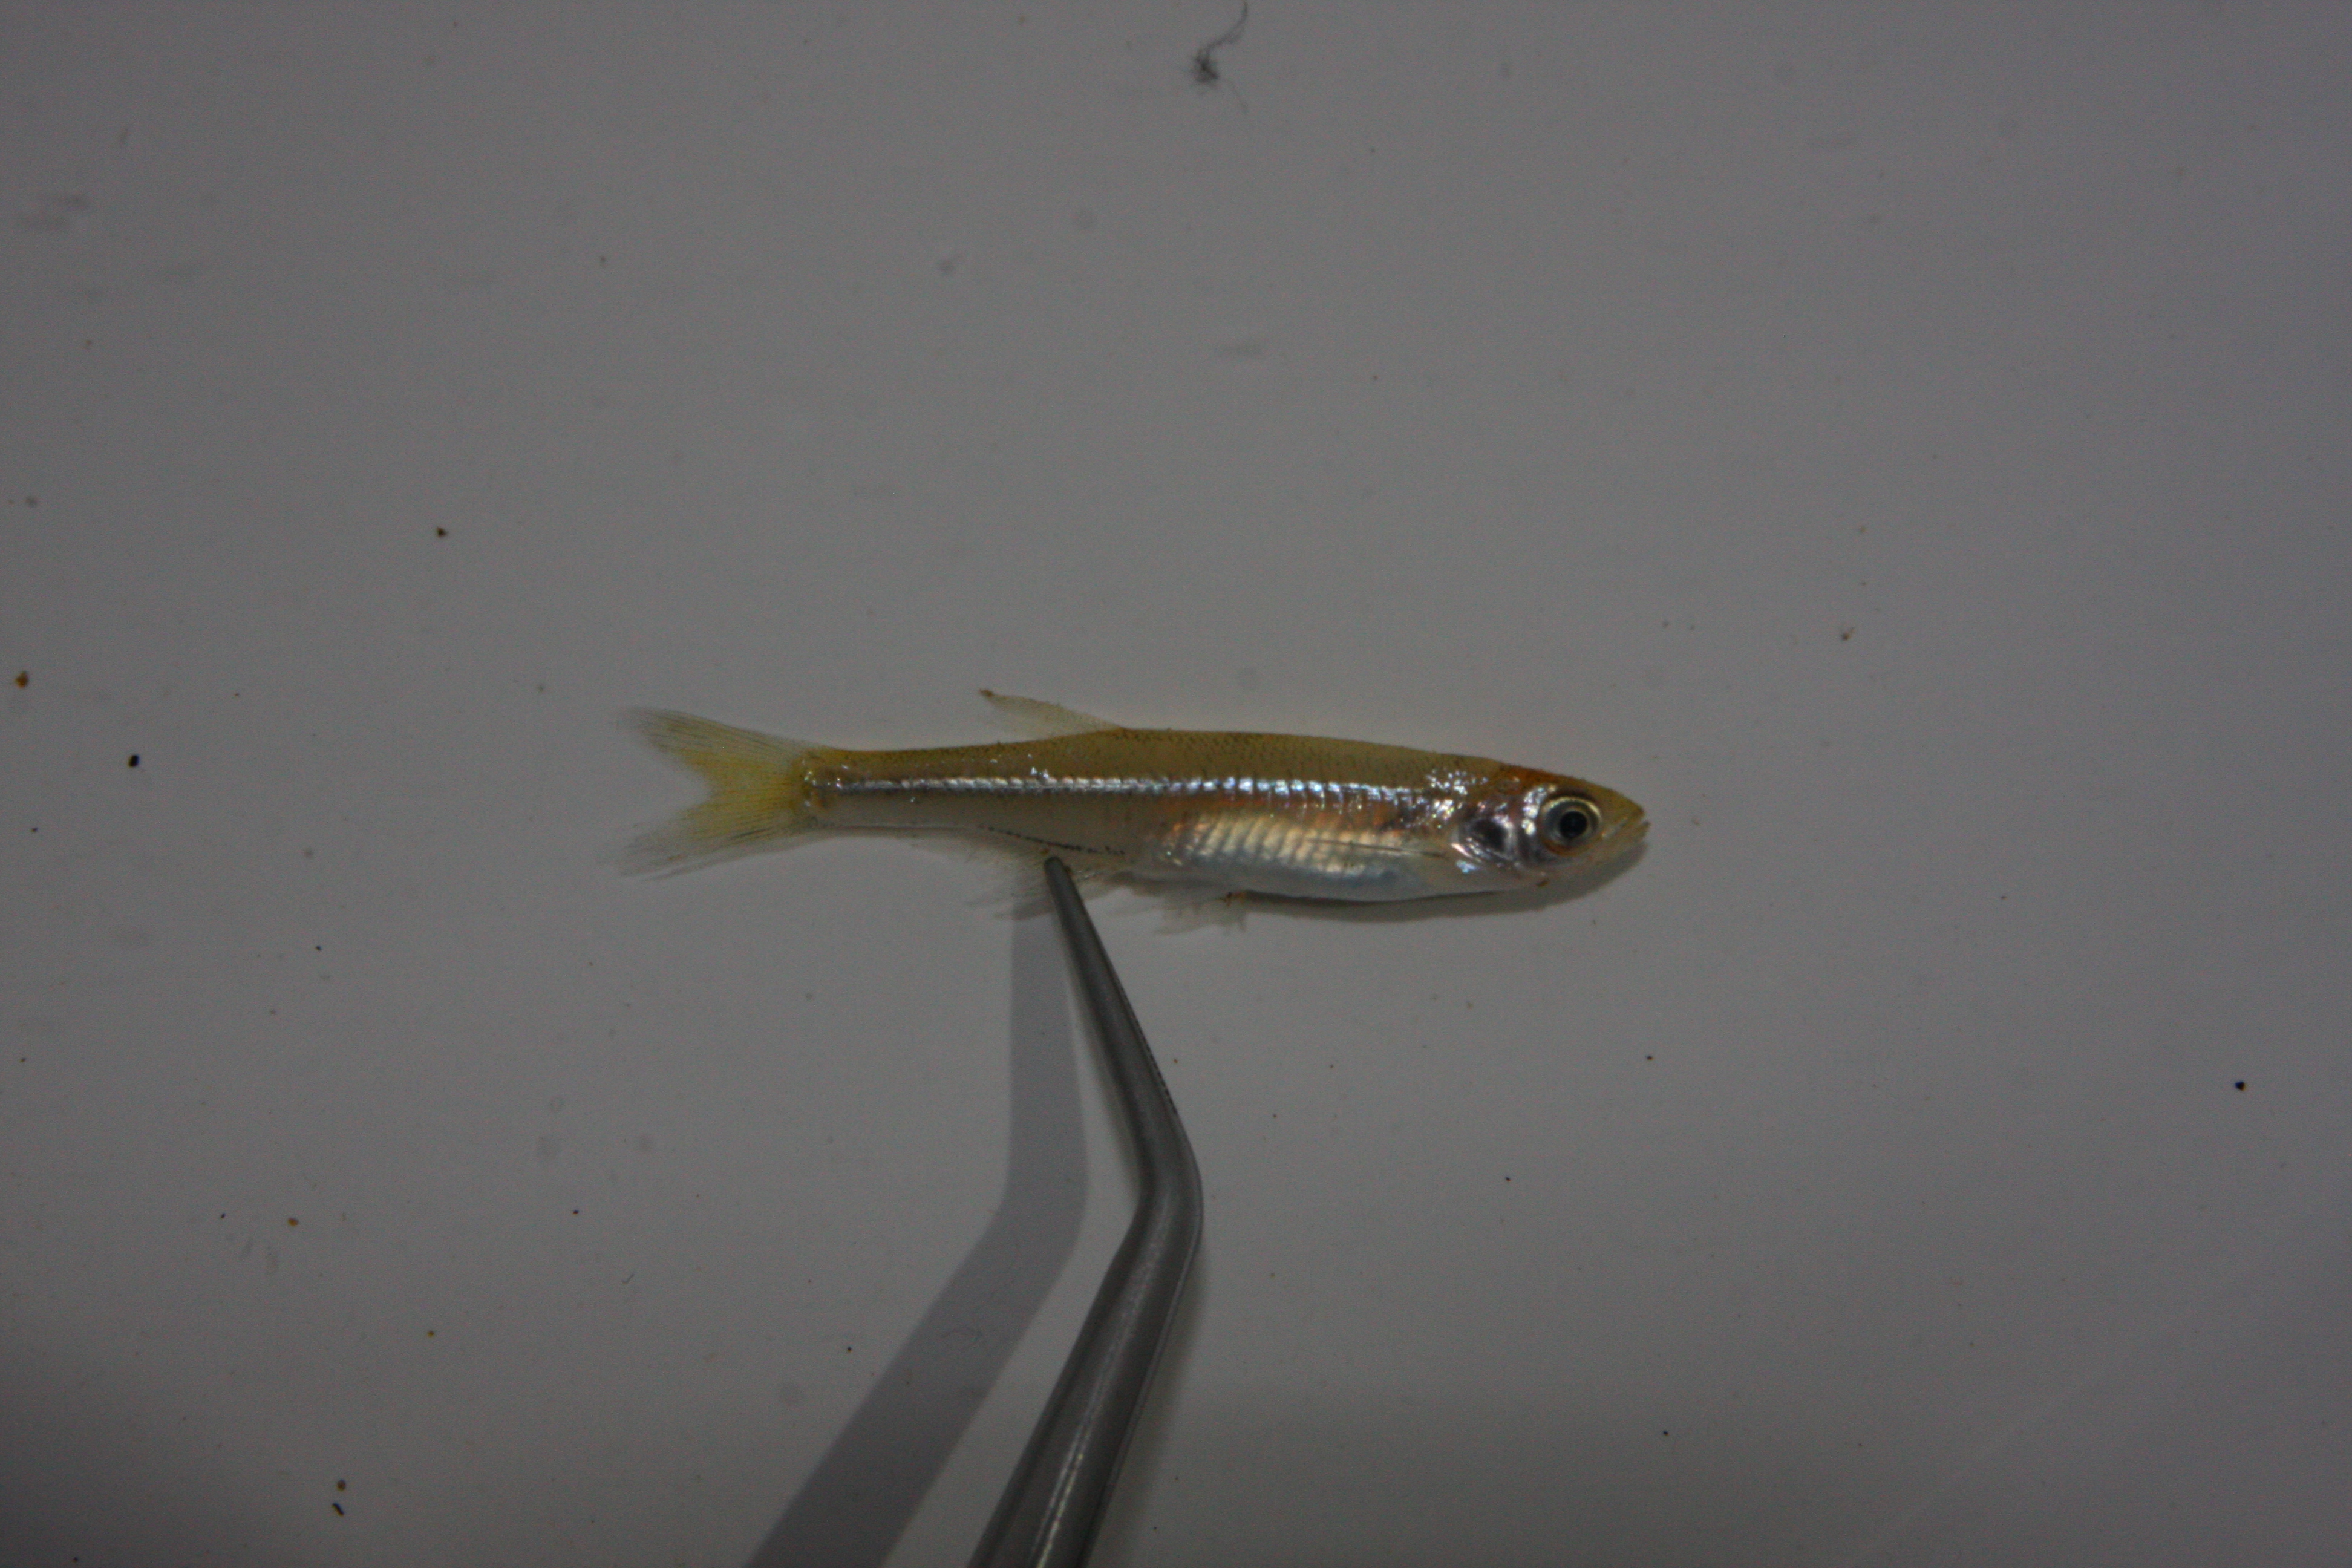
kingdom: Animalia
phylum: Chordata
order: Cypriniformes
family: Cyprinidae
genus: Engraulicypris
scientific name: Engraulicypris brevianalis
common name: River sardine
